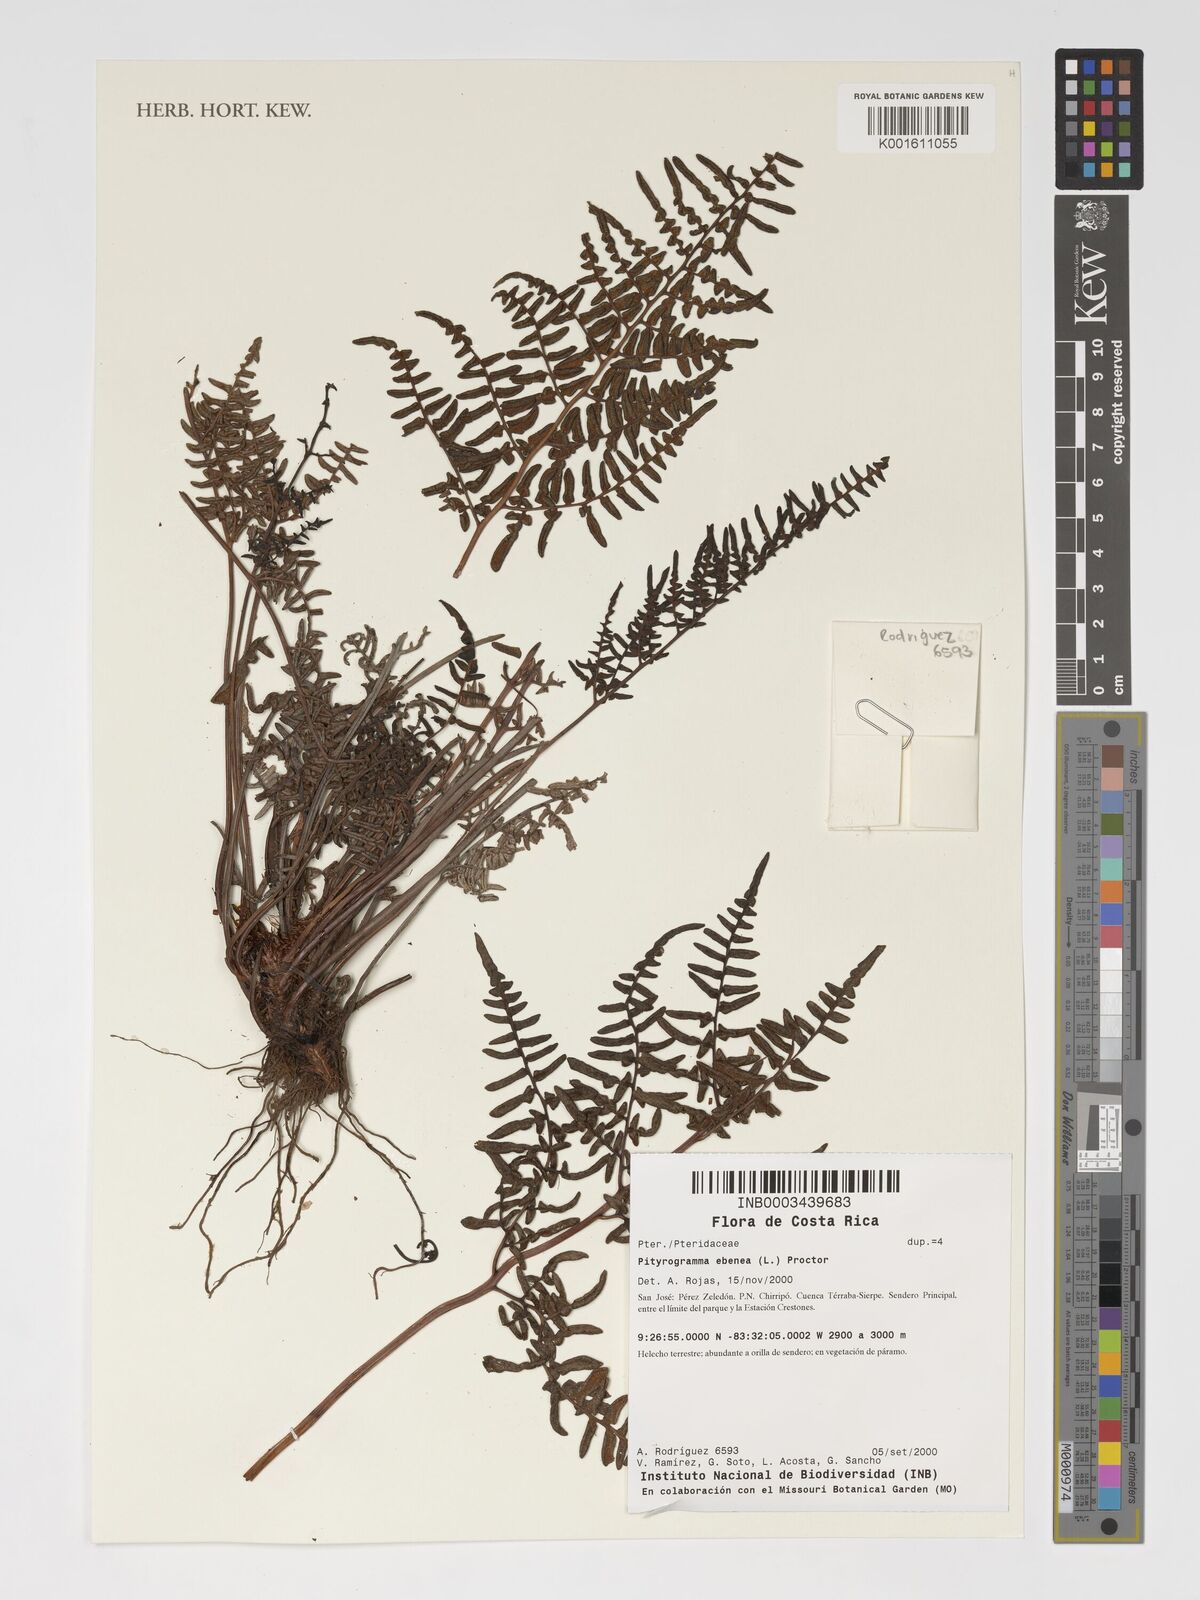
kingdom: Plantae
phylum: Tracheophyta
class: Polypodiopsida
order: Polypodiales
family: Pteridaceae
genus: Pityrogramma
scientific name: Pityrogramma ebenea
